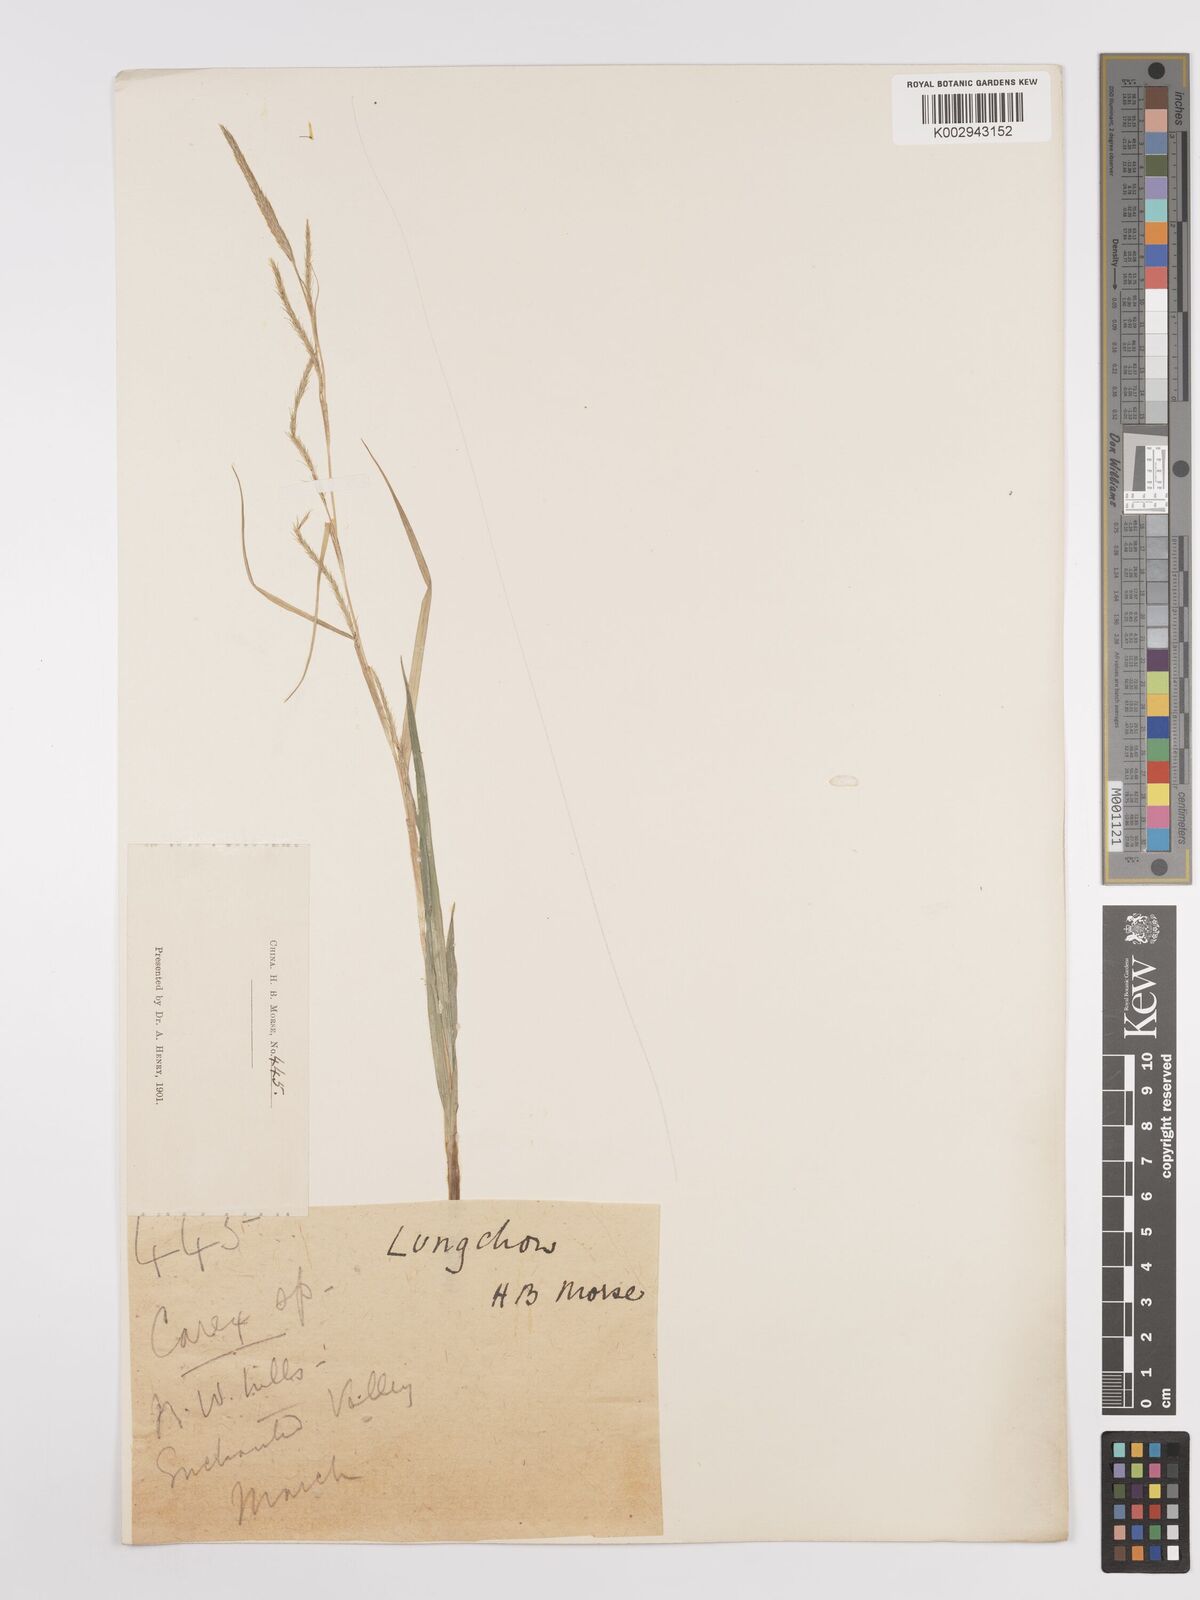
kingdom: Plantae
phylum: Tracheophyta
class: Liliopsida
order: Poales
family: Cyperaceae
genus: Carex
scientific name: Carex
